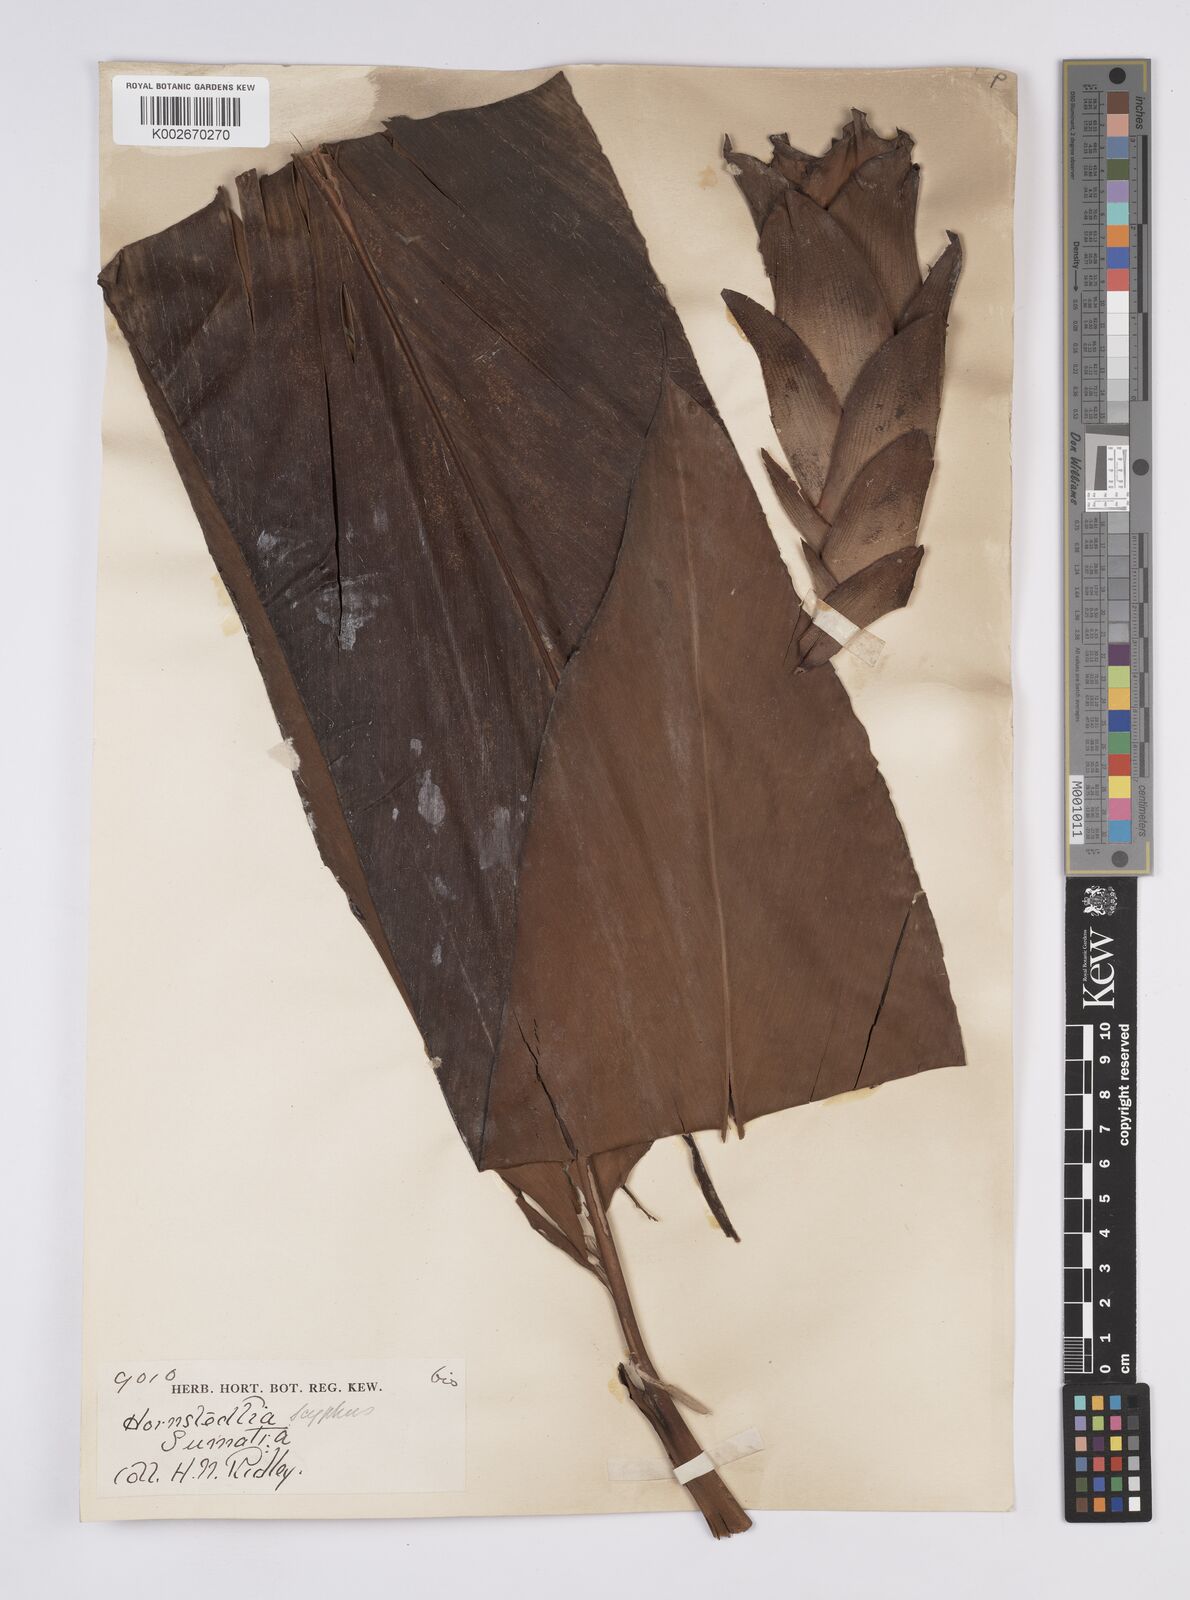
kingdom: Plantae
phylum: Tracheophyta
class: Liliopsida
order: Zingiberales
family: Zingiberaceae
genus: Hornstedtia
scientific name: Hornstedtia
